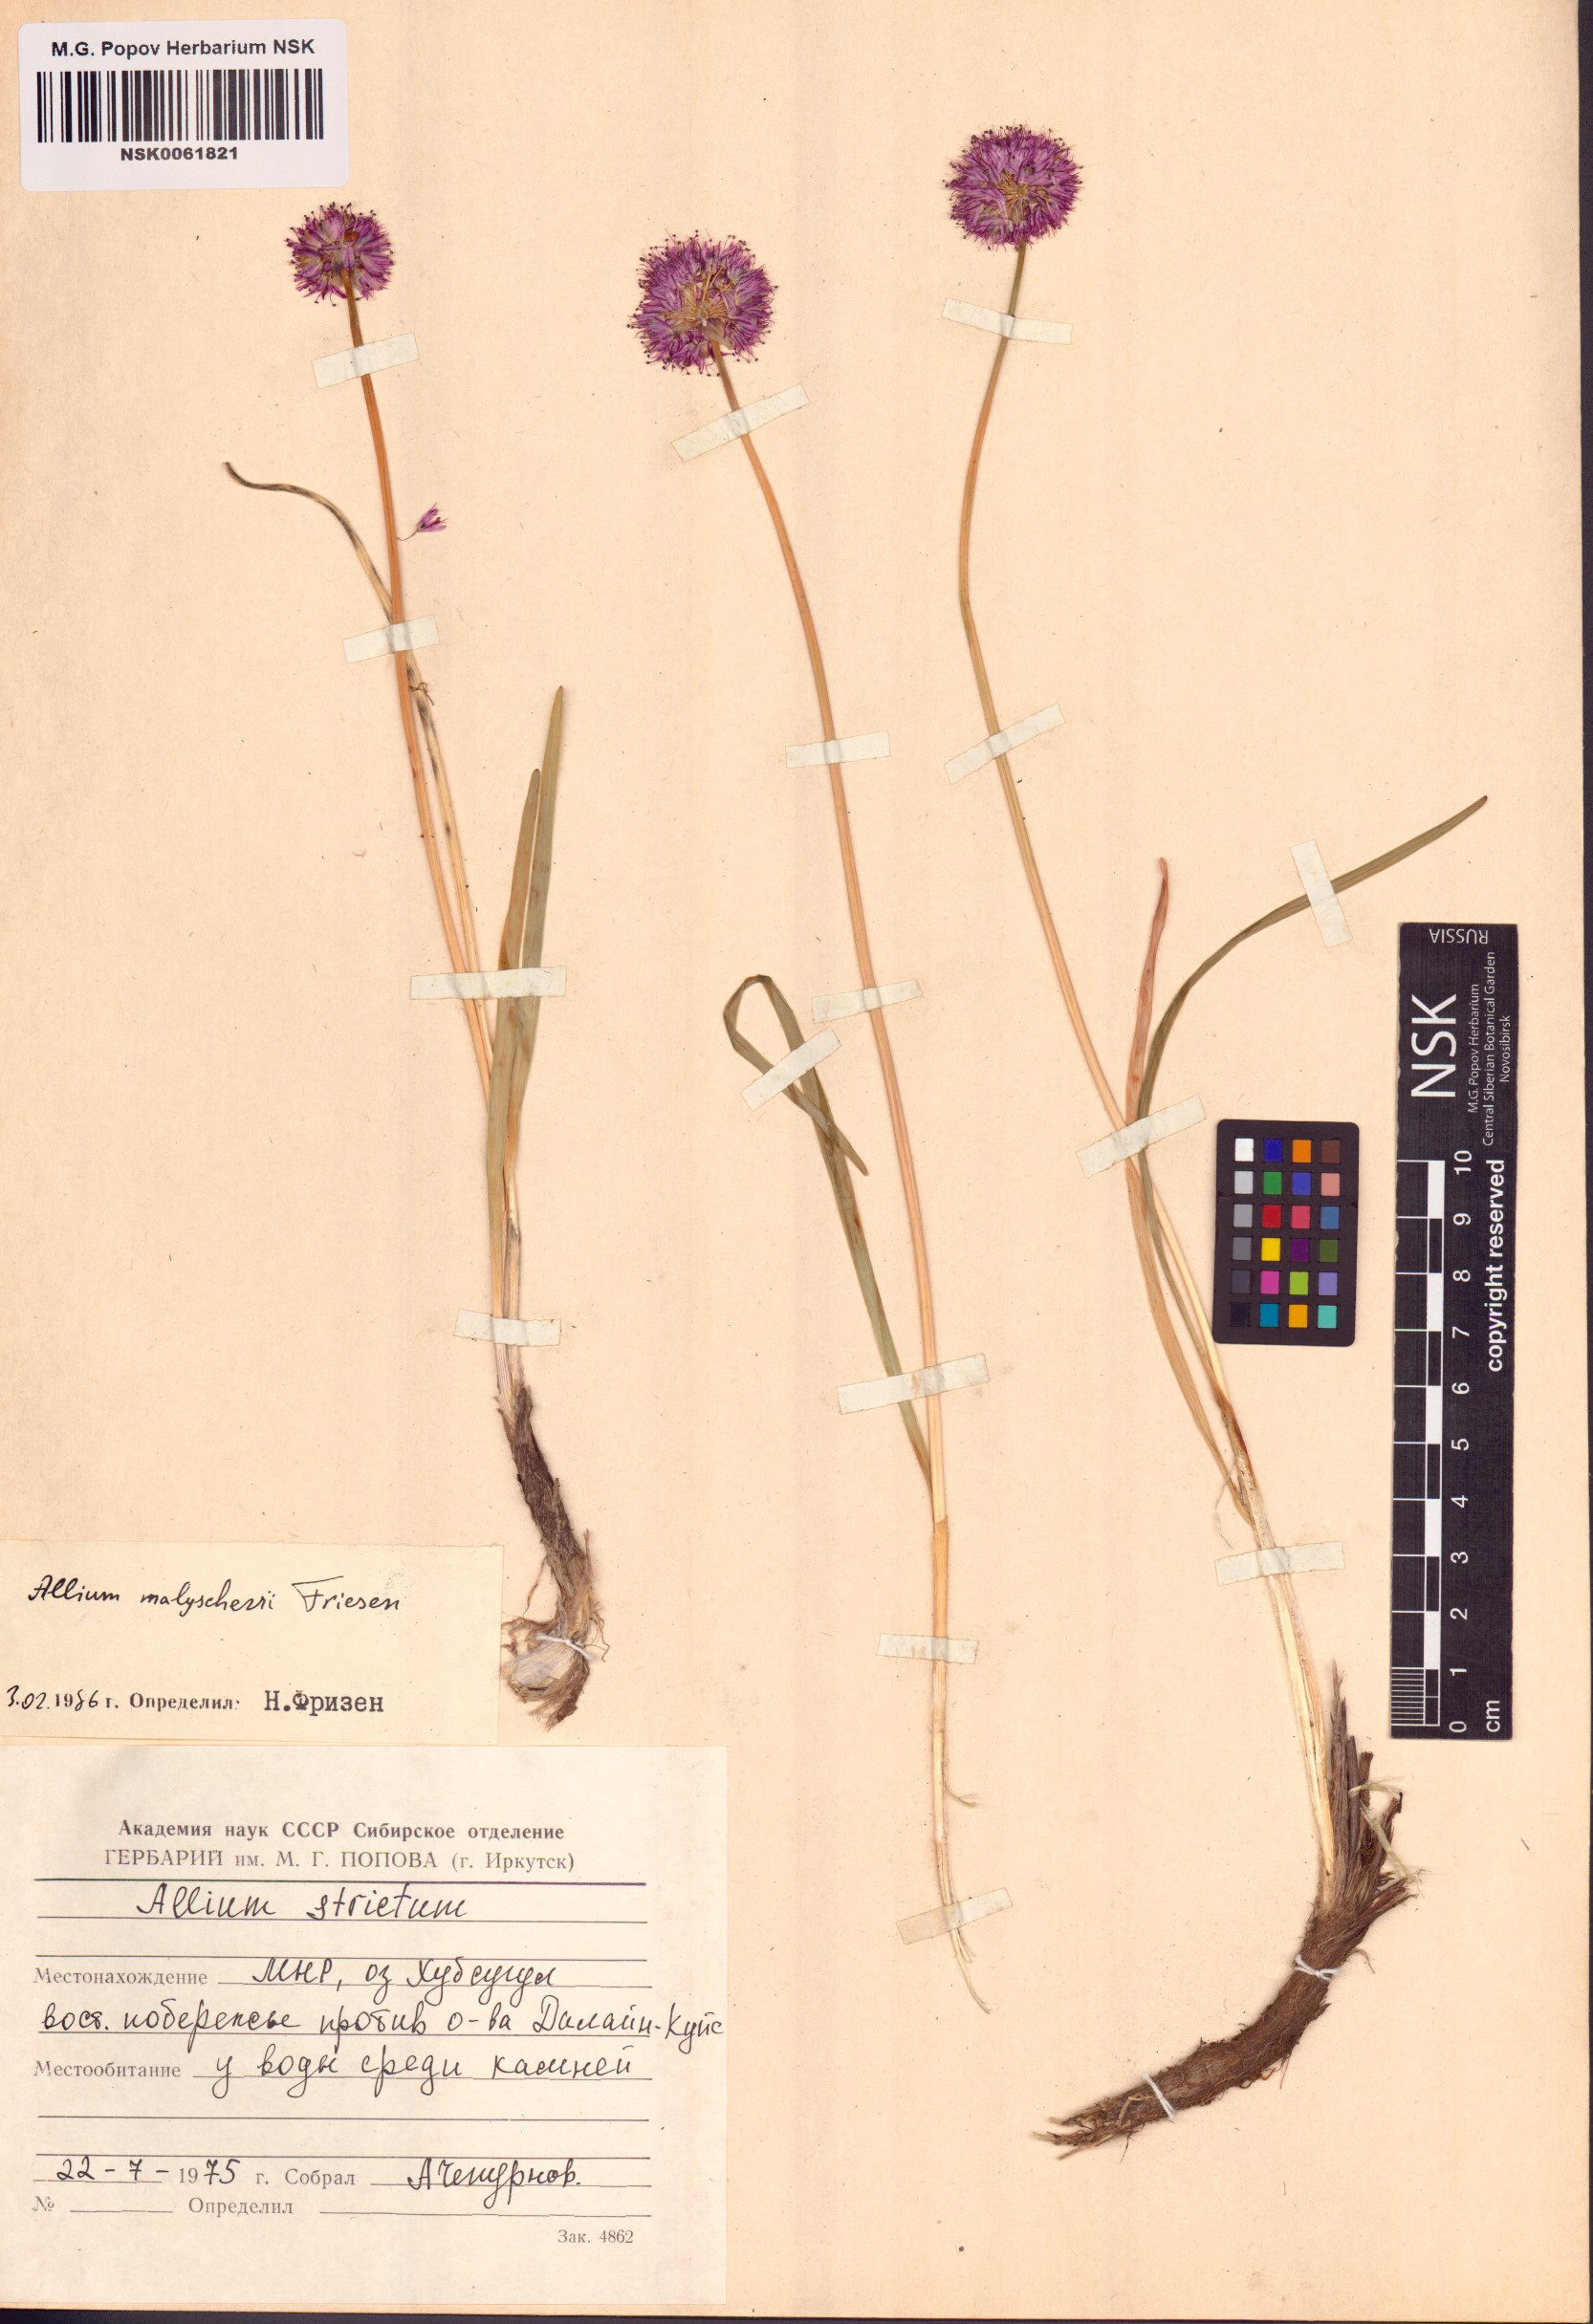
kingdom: Plantae
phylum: Tracheophyta
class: Liliopsida
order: Asparagales
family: Amaryllidaceae
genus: Allium
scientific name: Allium malyschevii
